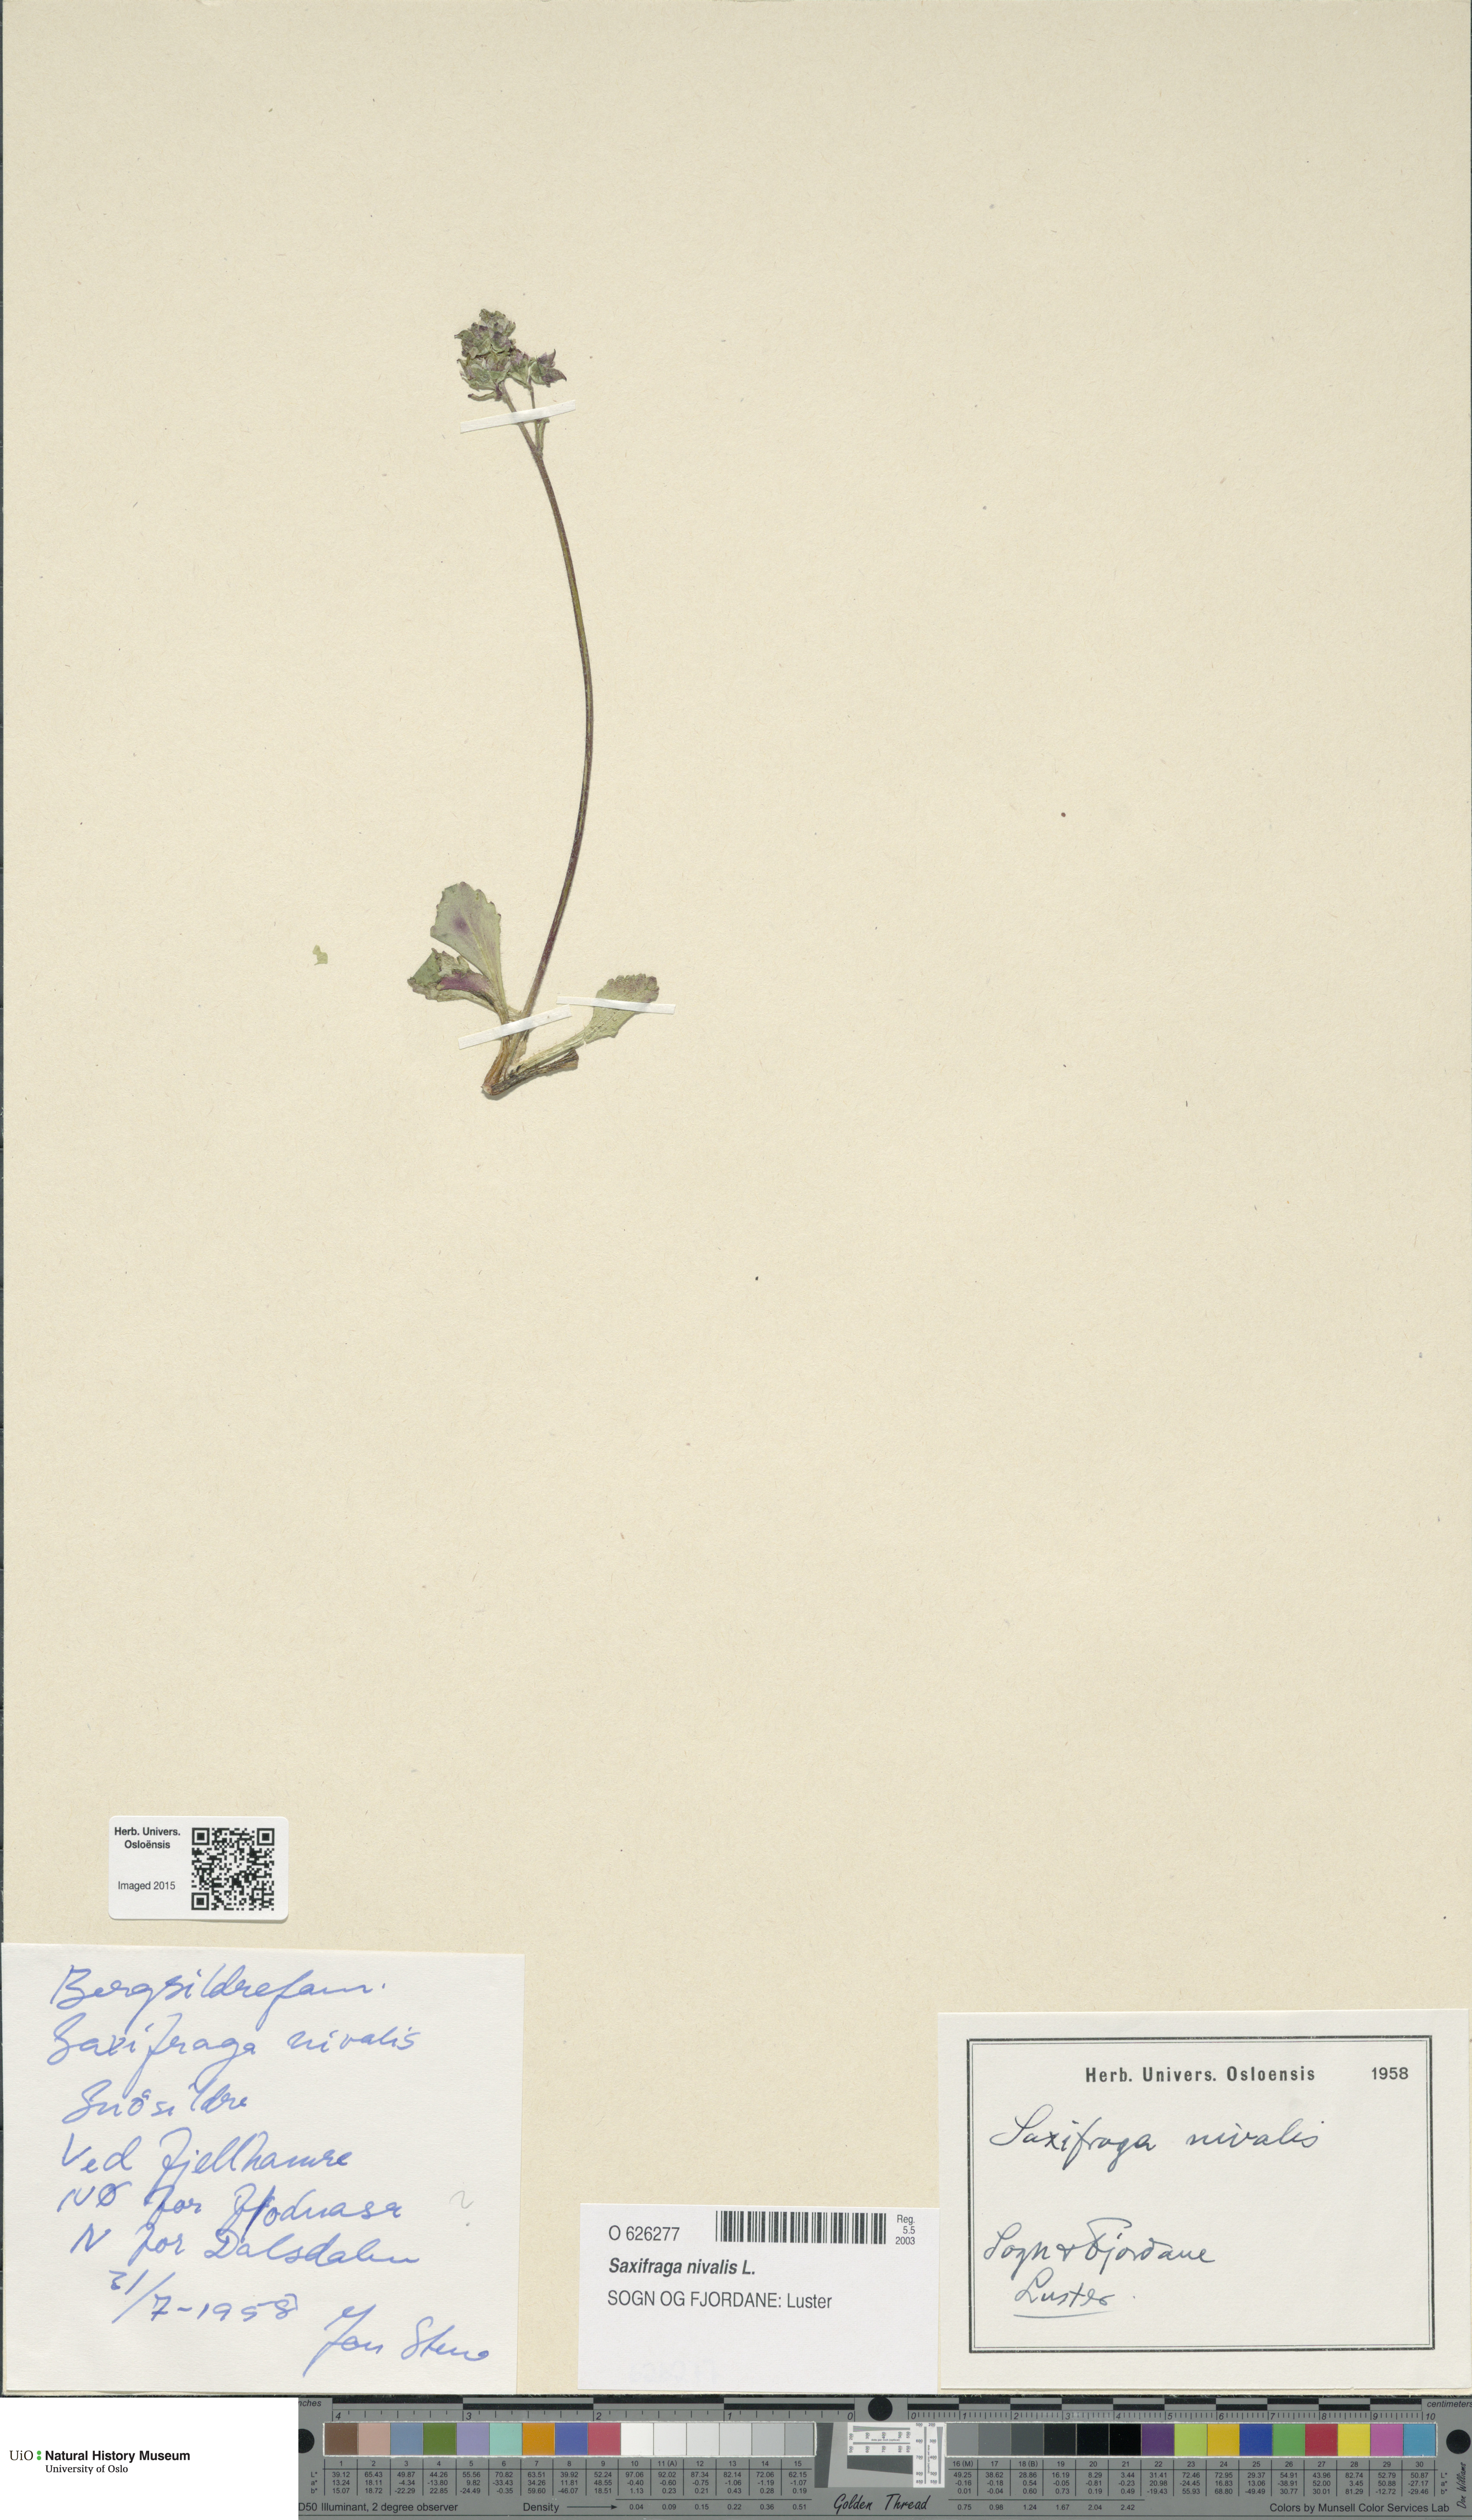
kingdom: Plantae
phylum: Tracheophyta
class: Magnoliopsida
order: Saxifragales
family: Saxifragaceae
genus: Micranthes
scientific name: Micranthes nivalis
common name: Alpine saxifrage
